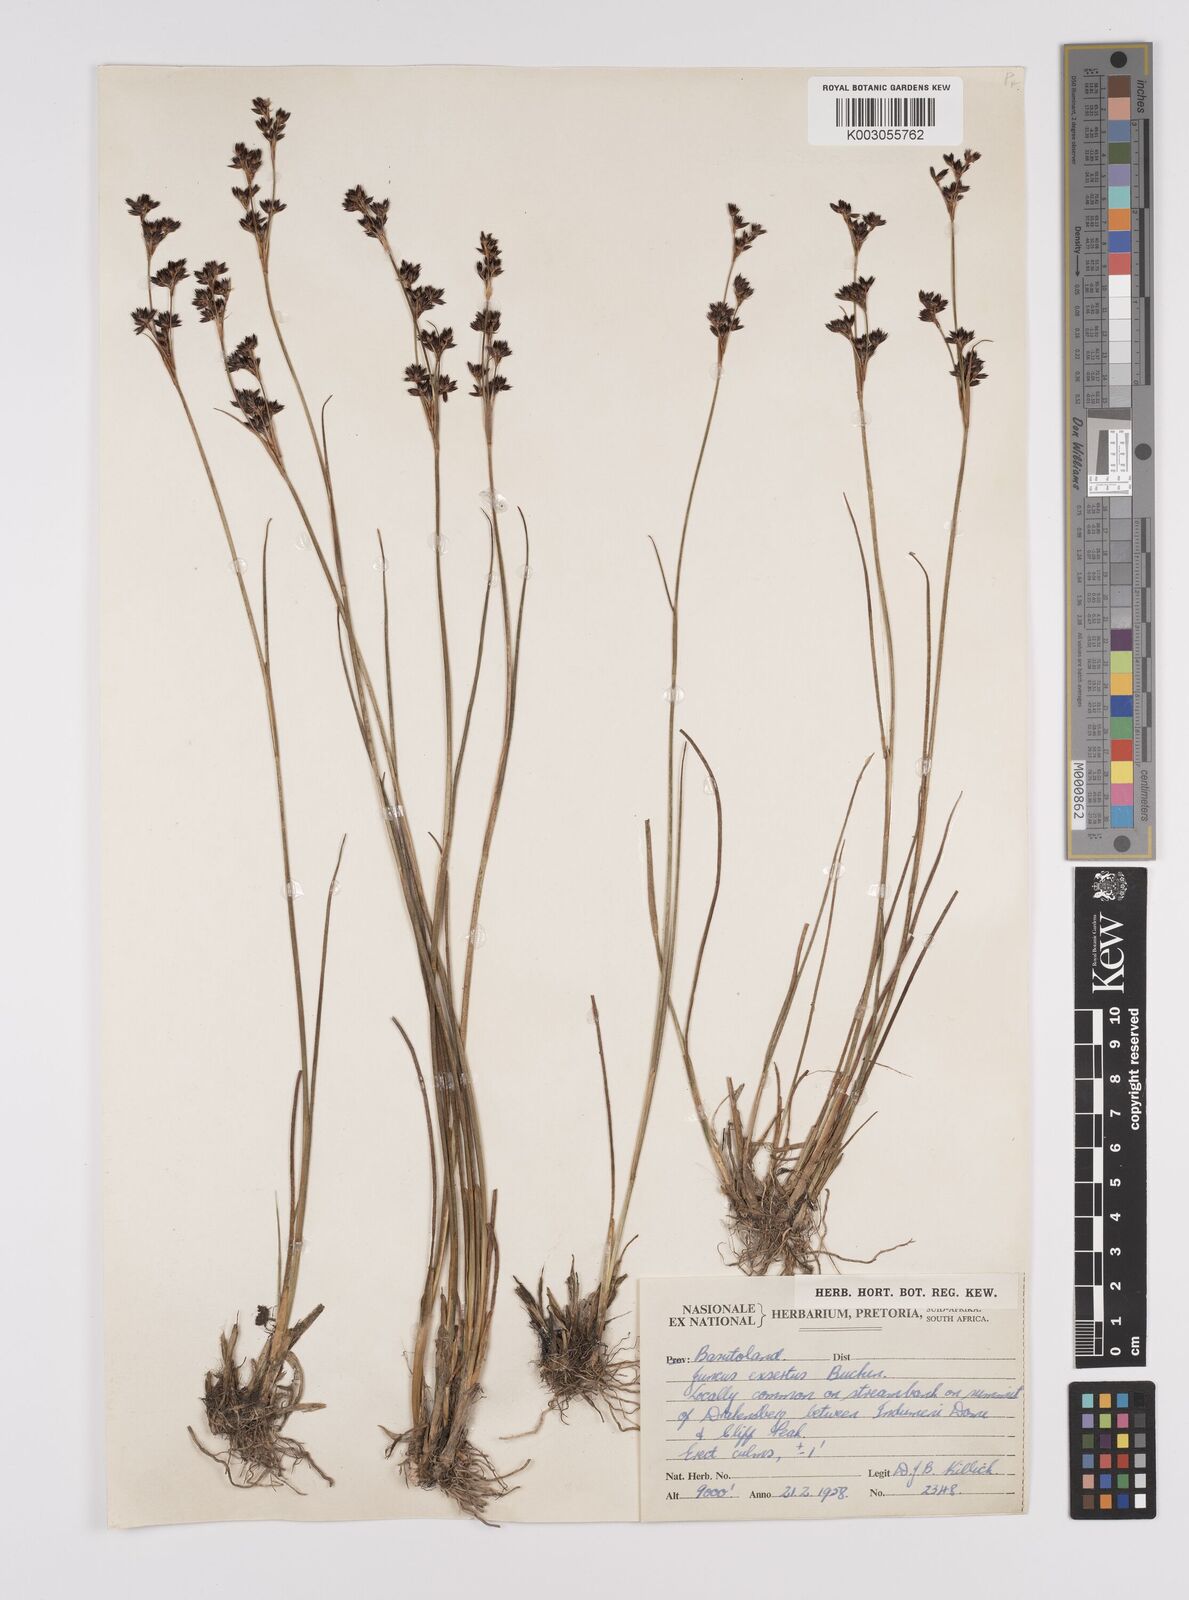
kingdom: Plantae
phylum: Tracheophyta
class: Liliopsida
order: Poales
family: Juncaceae
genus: Juncus
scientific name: Juncus exsertus
